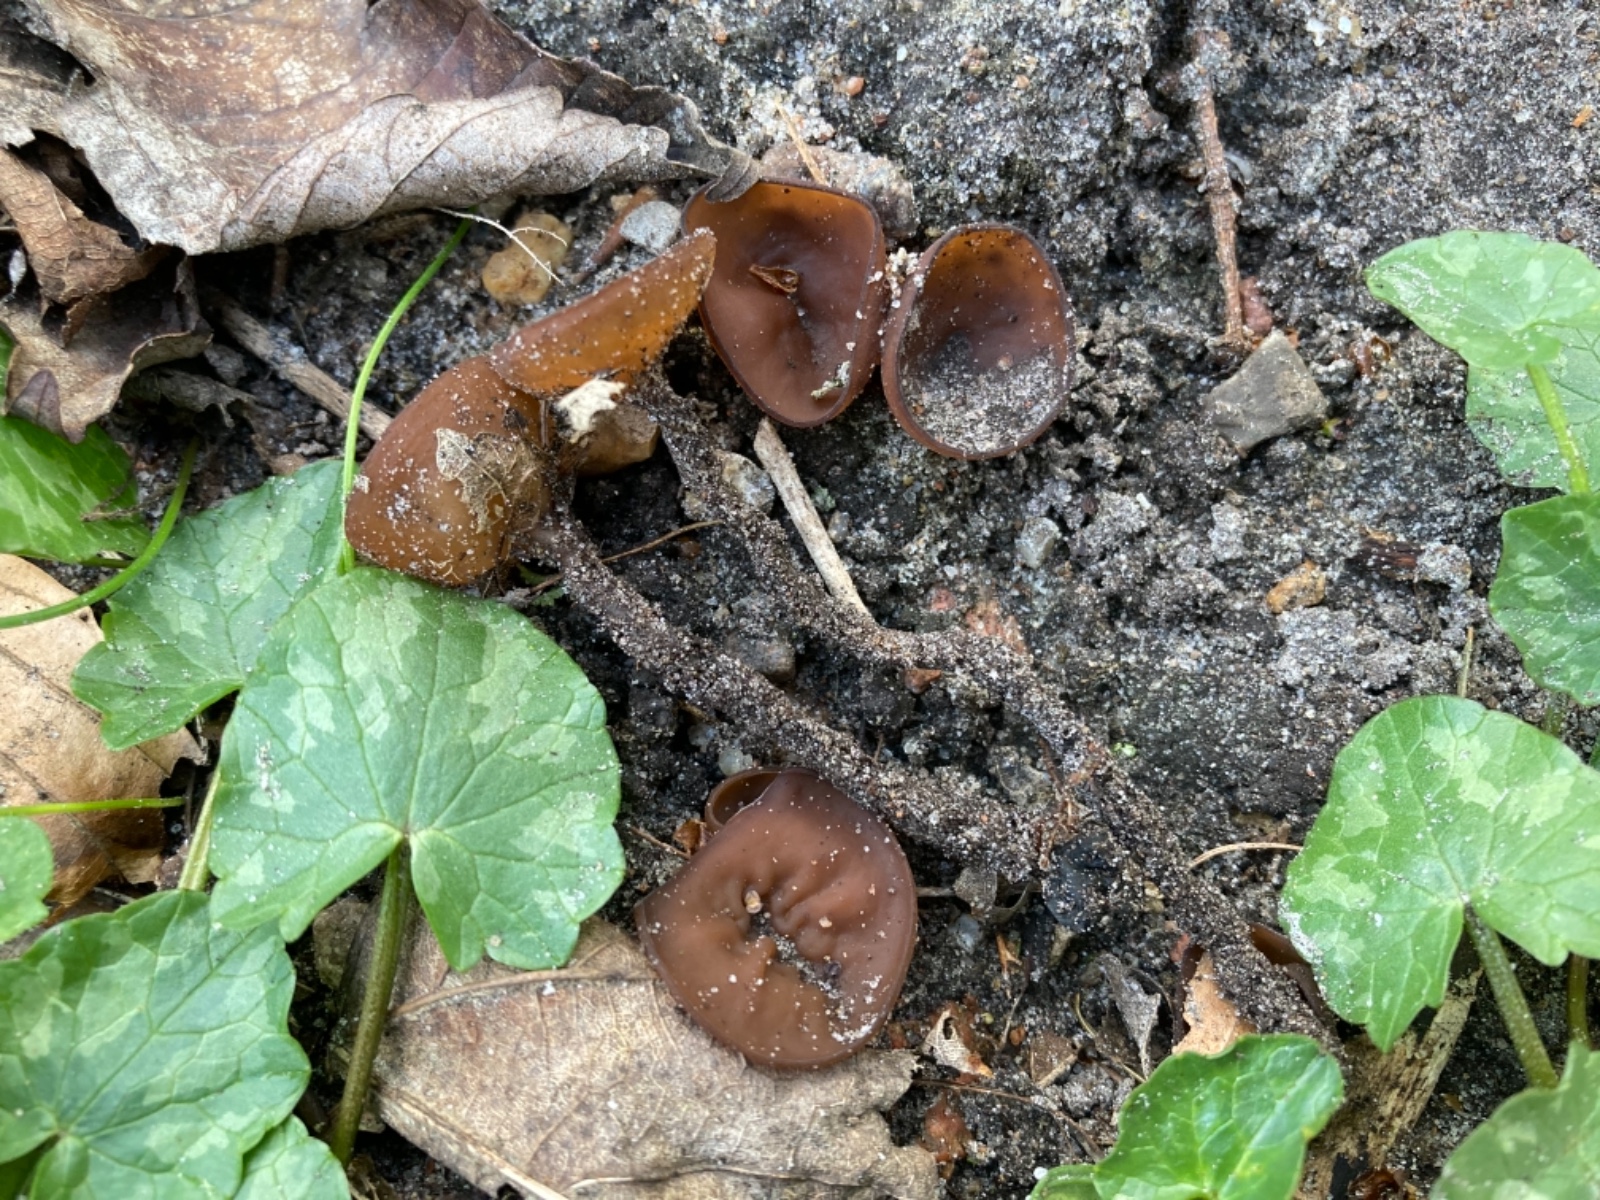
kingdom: Fungi
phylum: Ascomycota
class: Leotiomycetes
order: Helotiales
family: Sclerotiniaceae
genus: Dumontinia
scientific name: Dumontinia tuberosa
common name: anemone-knoldskive
